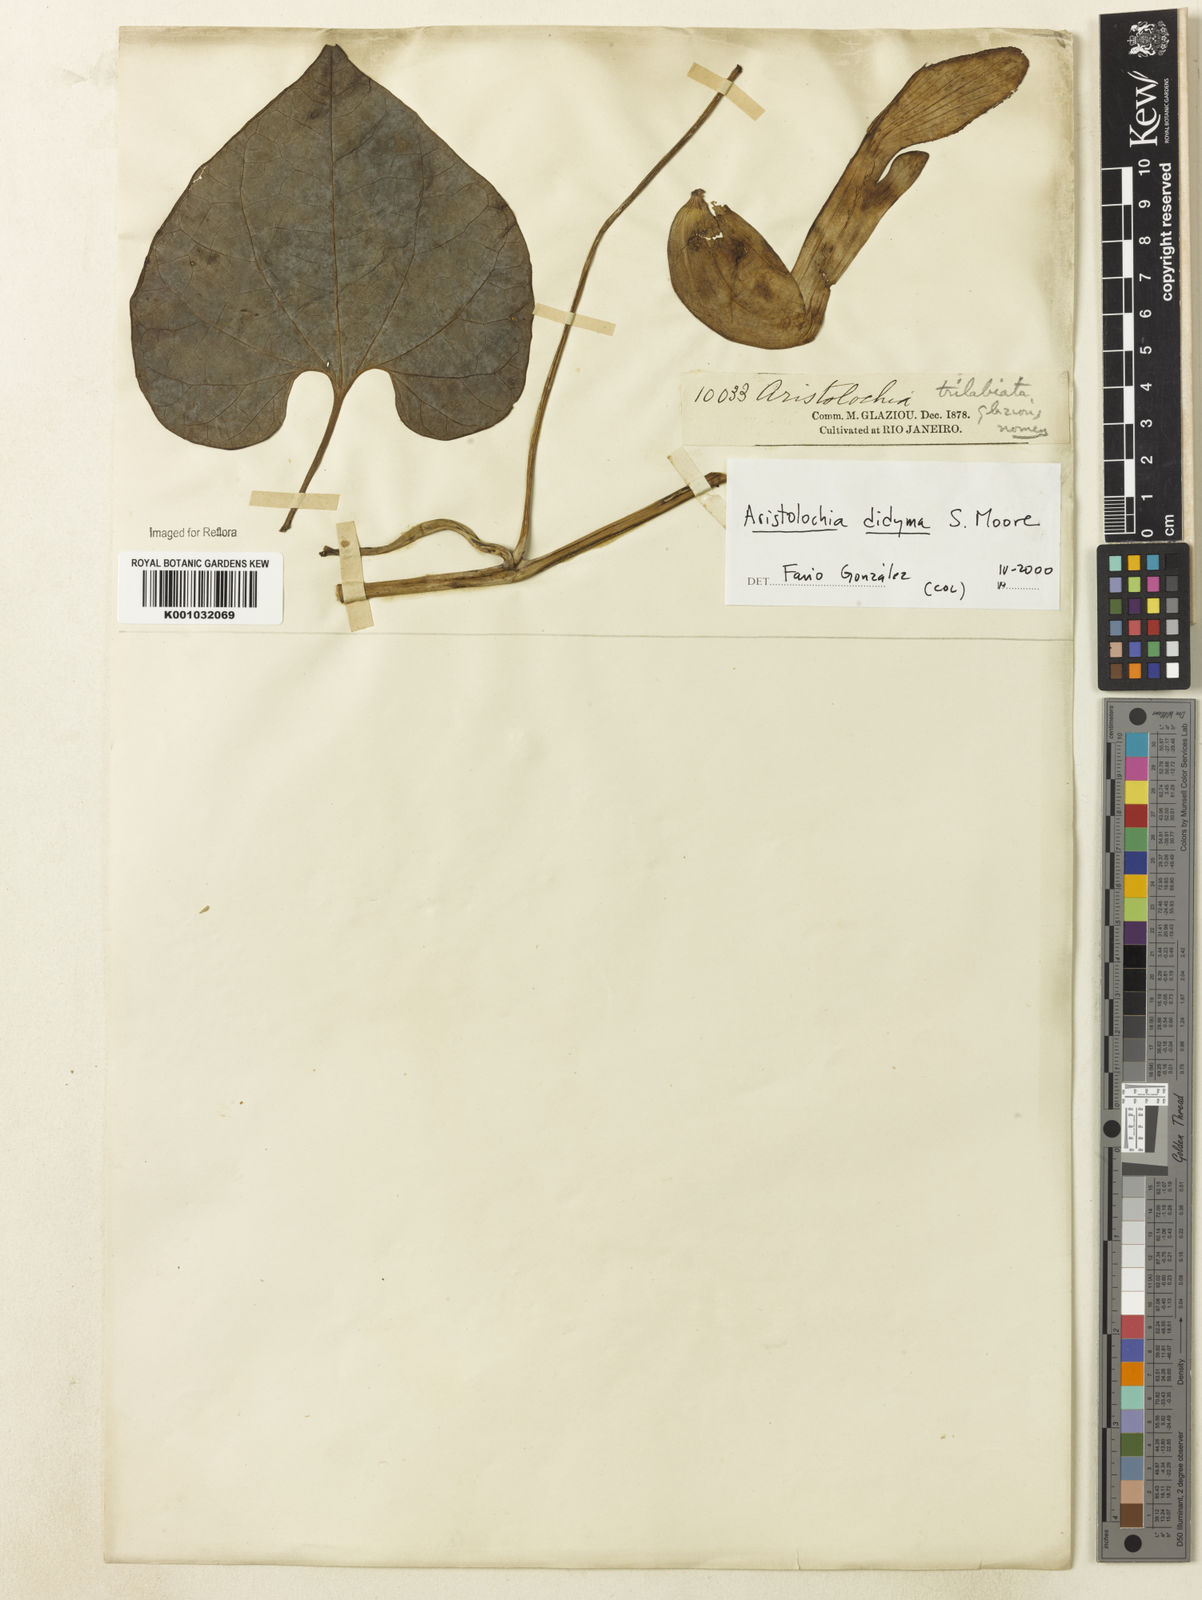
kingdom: Plantae
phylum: Tracheophyta
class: Magnoliopsida
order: Piperales
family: Aristolochiaceae
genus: Aristolochia
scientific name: Aristolochia
